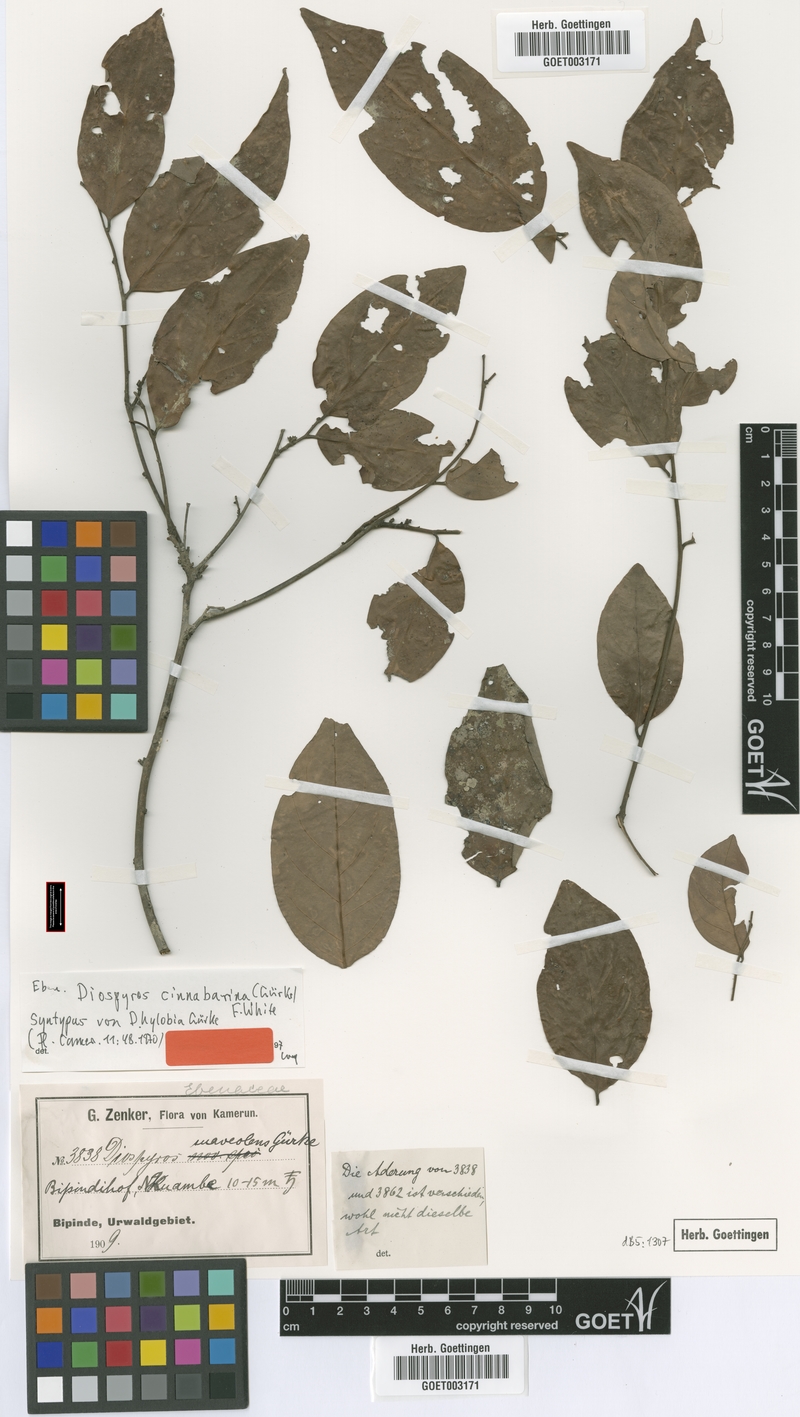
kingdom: Plantae
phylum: Tracheophyta
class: Magnoliopsida
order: Ericales
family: Ebenaceae
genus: Diospyros
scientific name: Diospyros cinnabarina
